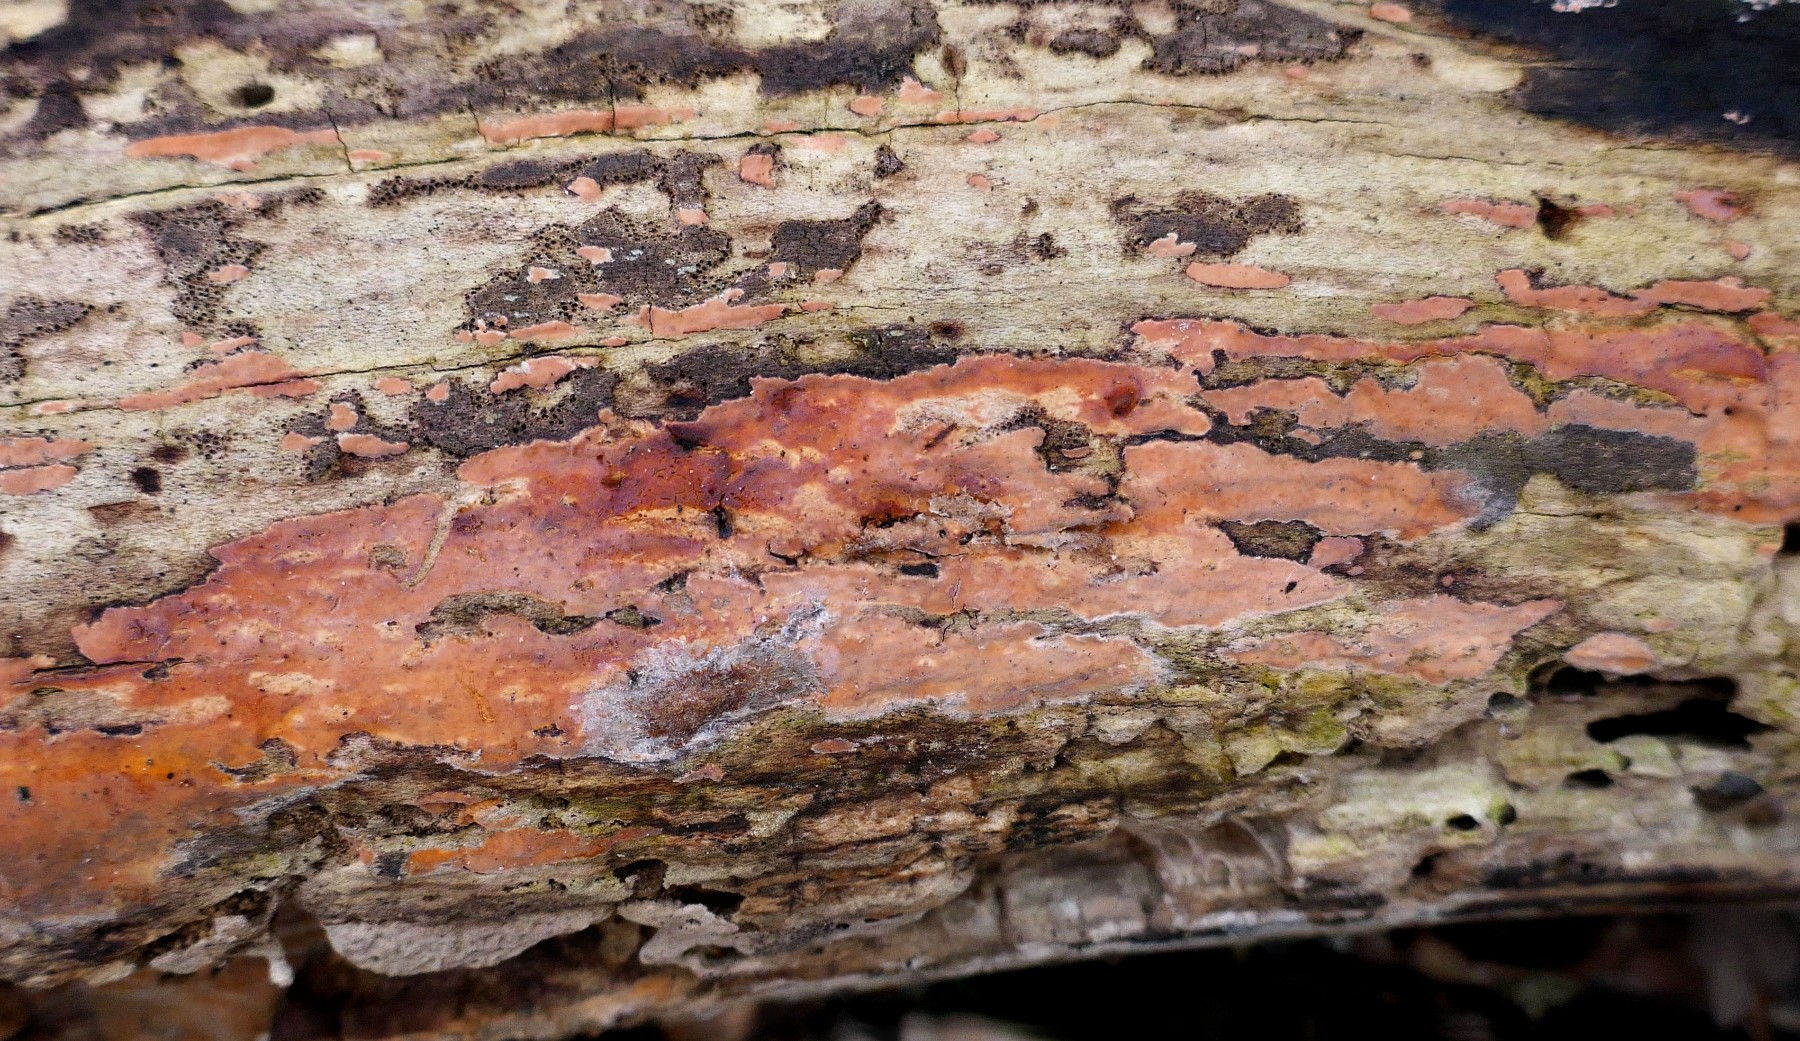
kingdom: Fungi
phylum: Basidiomycota
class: Agaricomycetes
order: Russulales
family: Peniophoraceae
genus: Peniophora
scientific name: Peniophora incarnata
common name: laksefarvet voksskind
